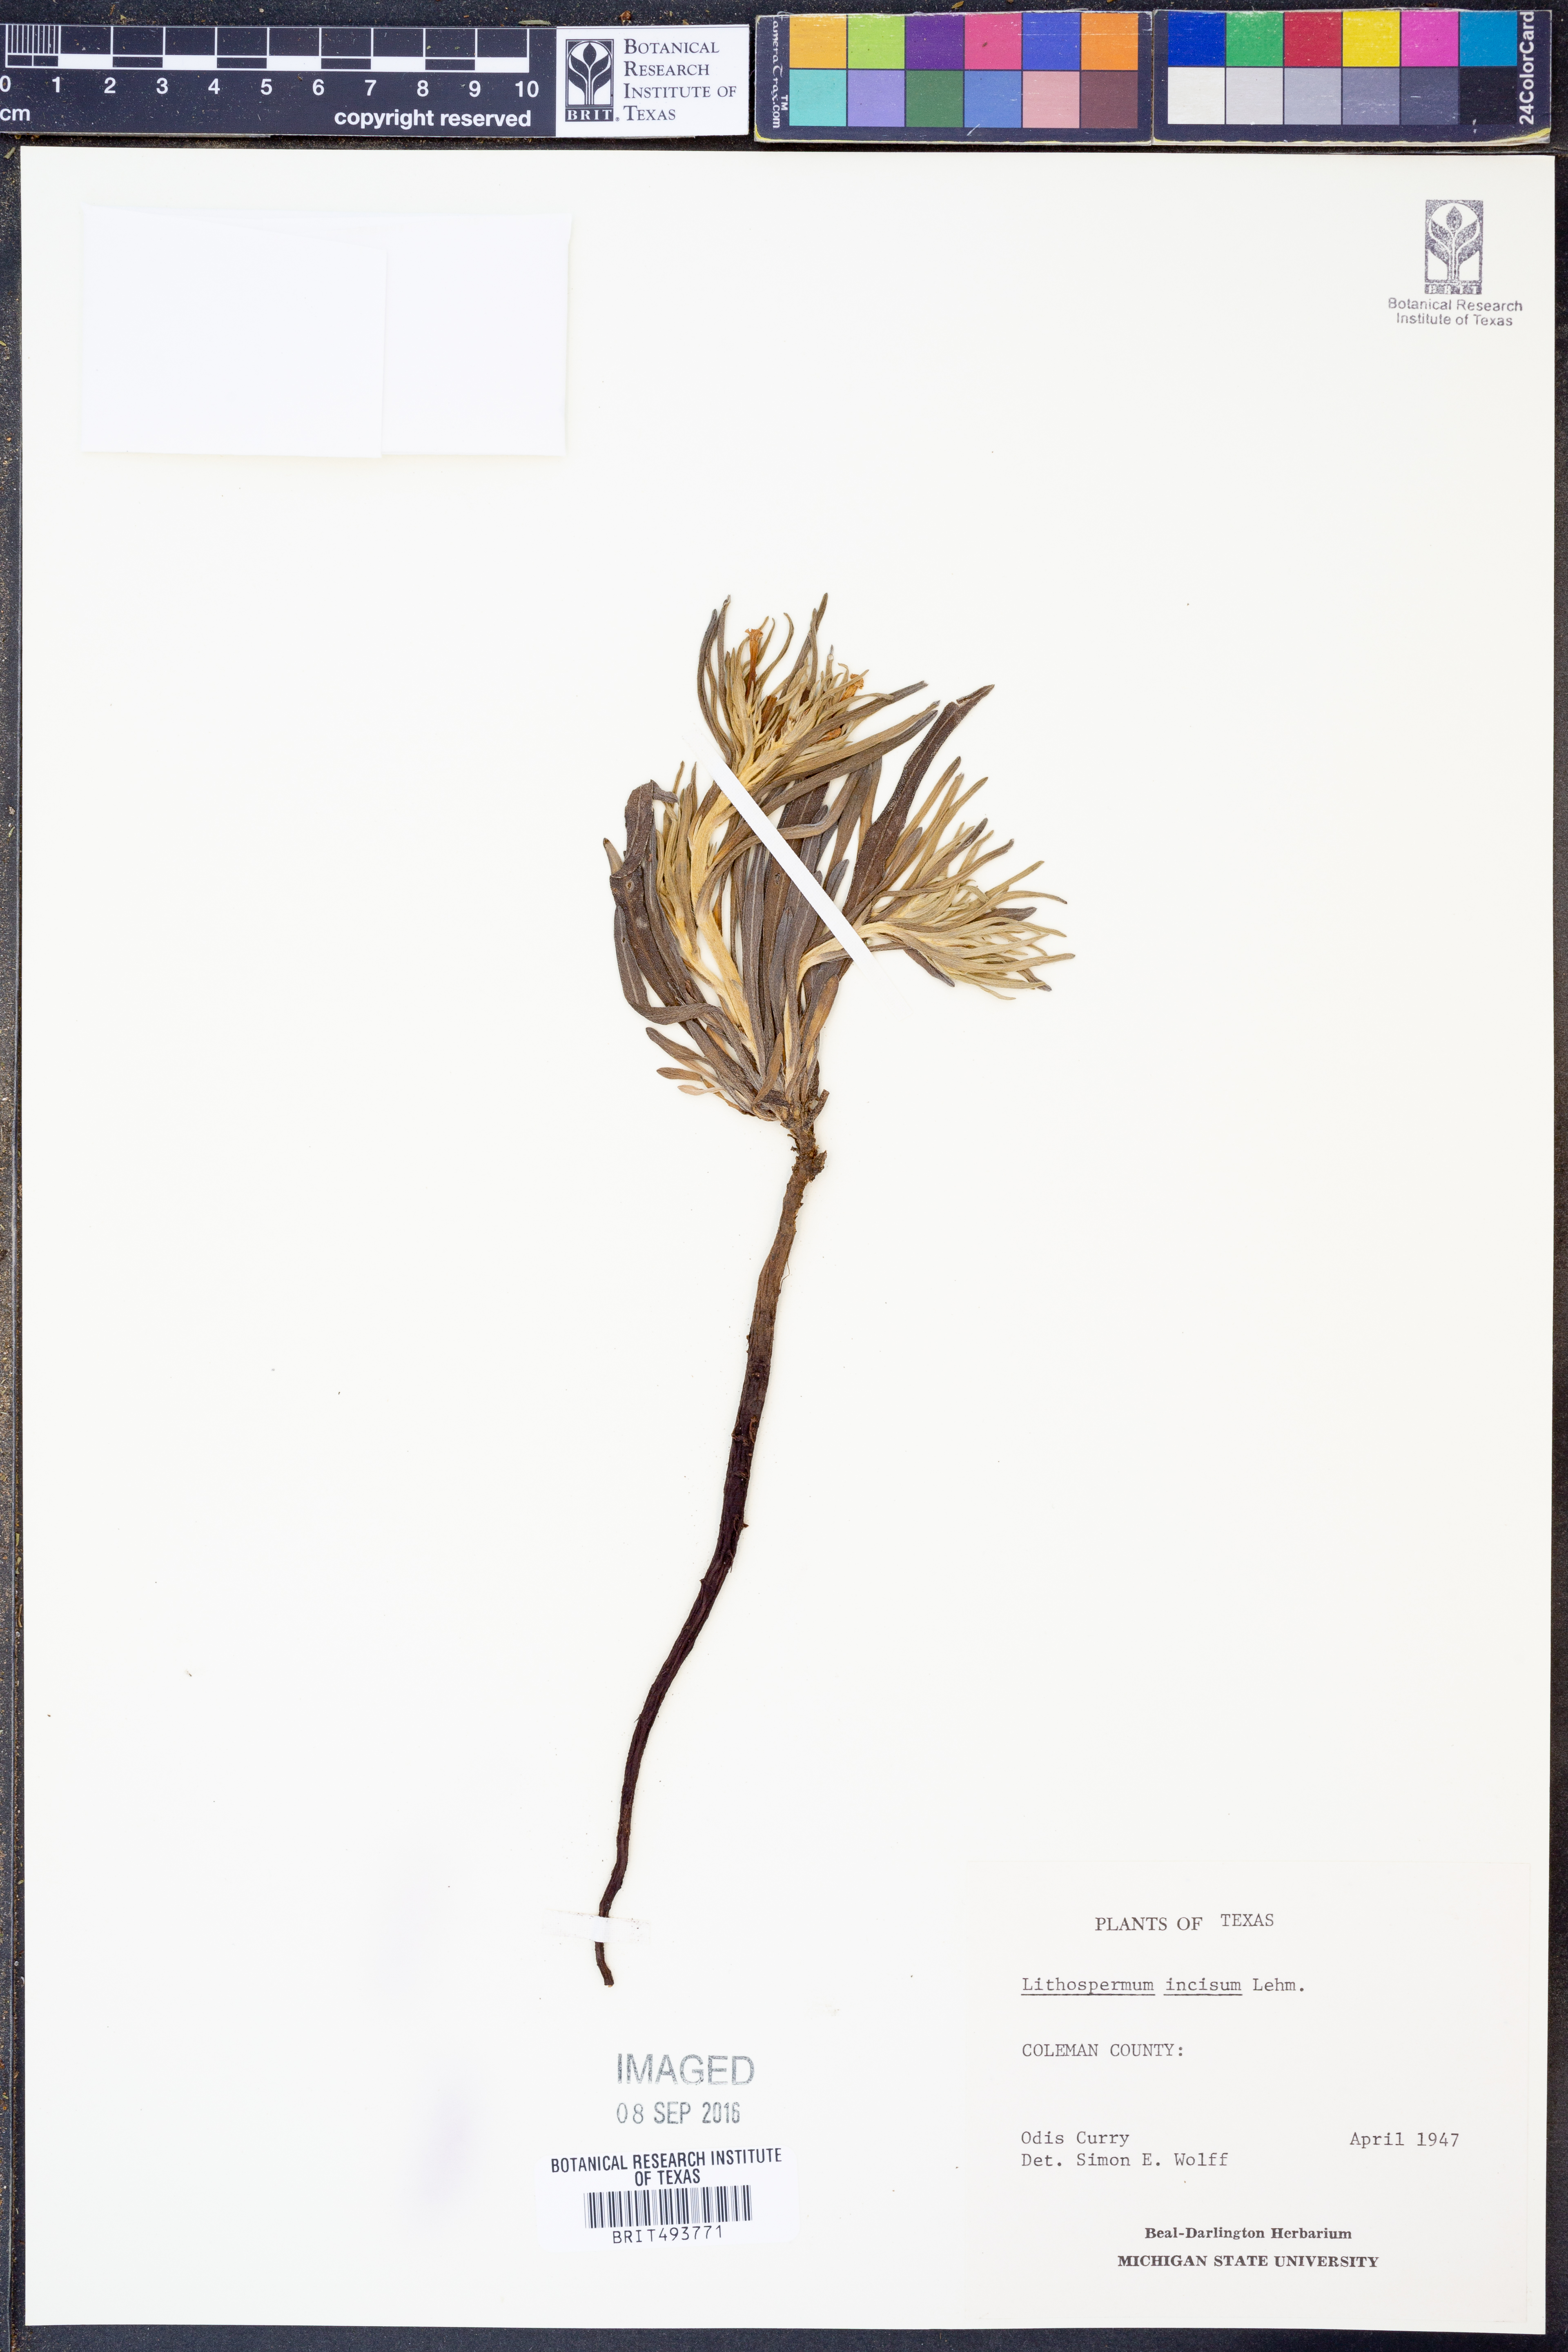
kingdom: Plantae
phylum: Tracheophyta
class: Magnoliopsida
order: Boraginales
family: Boraginaceae
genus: Lithospermum
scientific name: Lithospermum incisum
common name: Fringed gromwell
